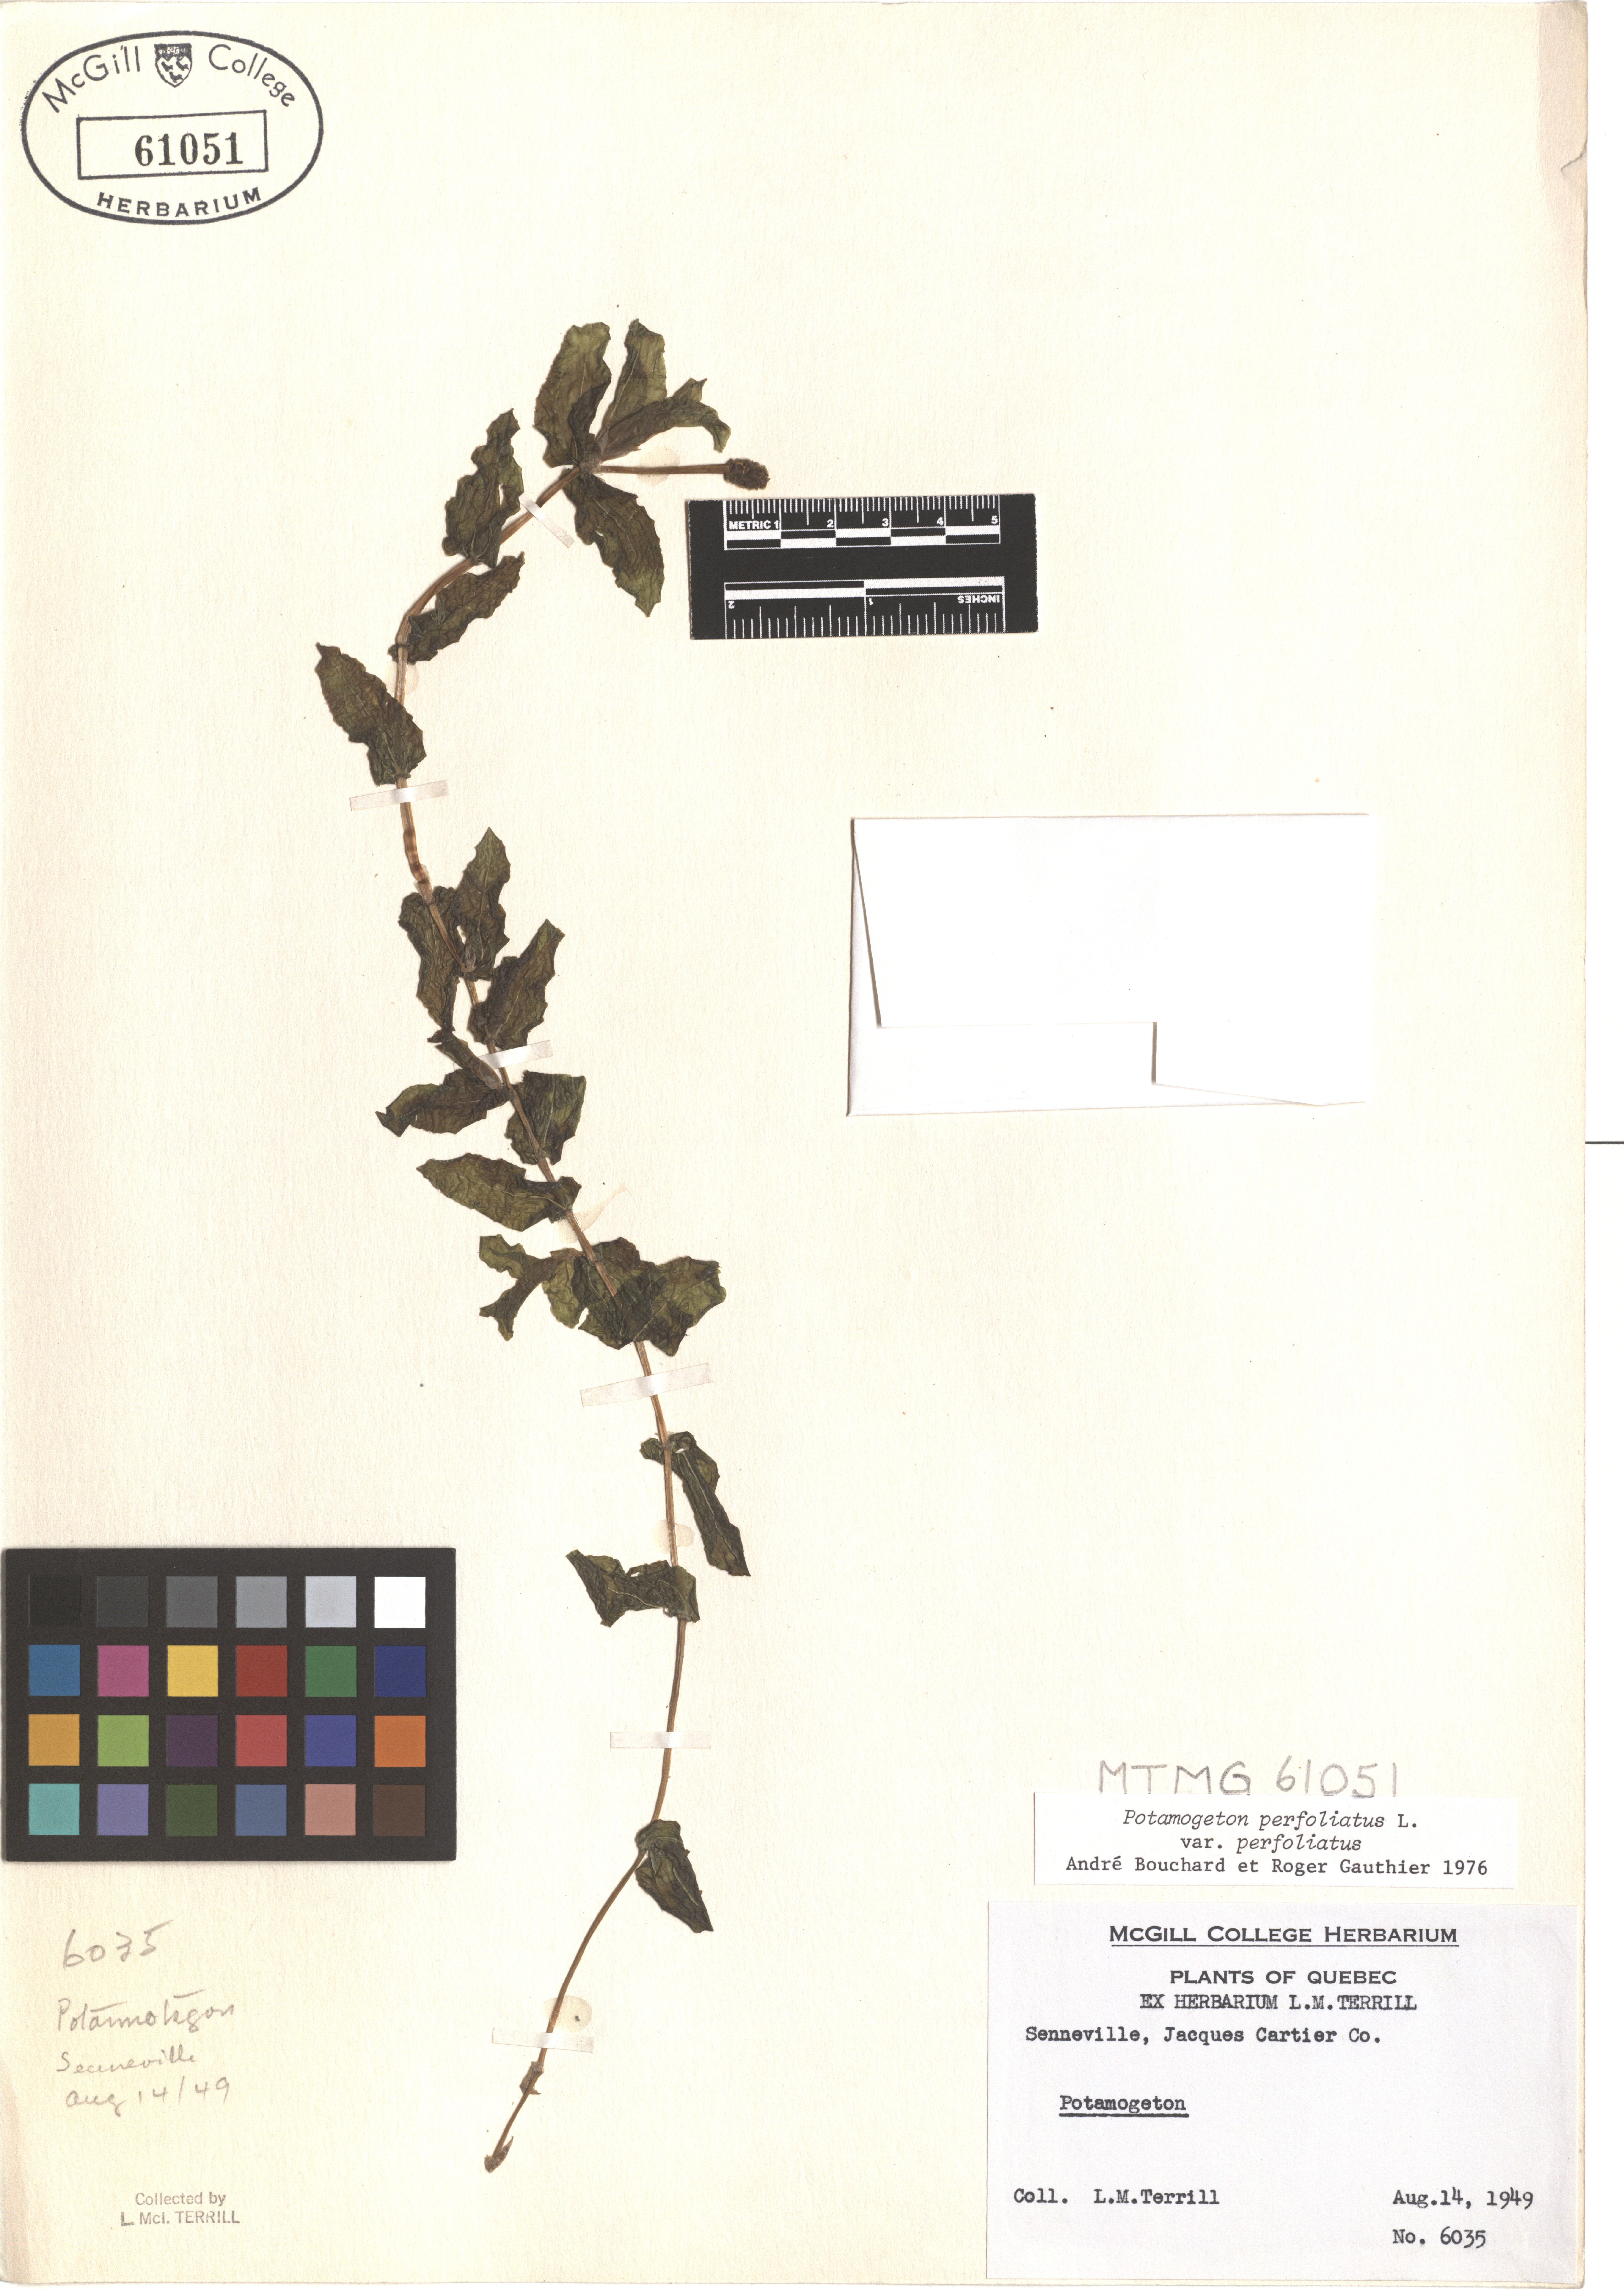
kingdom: Plantae
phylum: Tracheophyta
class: Liliopsida
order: Alismatales
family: Potamogetonaceae
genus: Potamogeton
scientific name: Potamogeton perfoliatus
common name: Perfoliate pondweed
